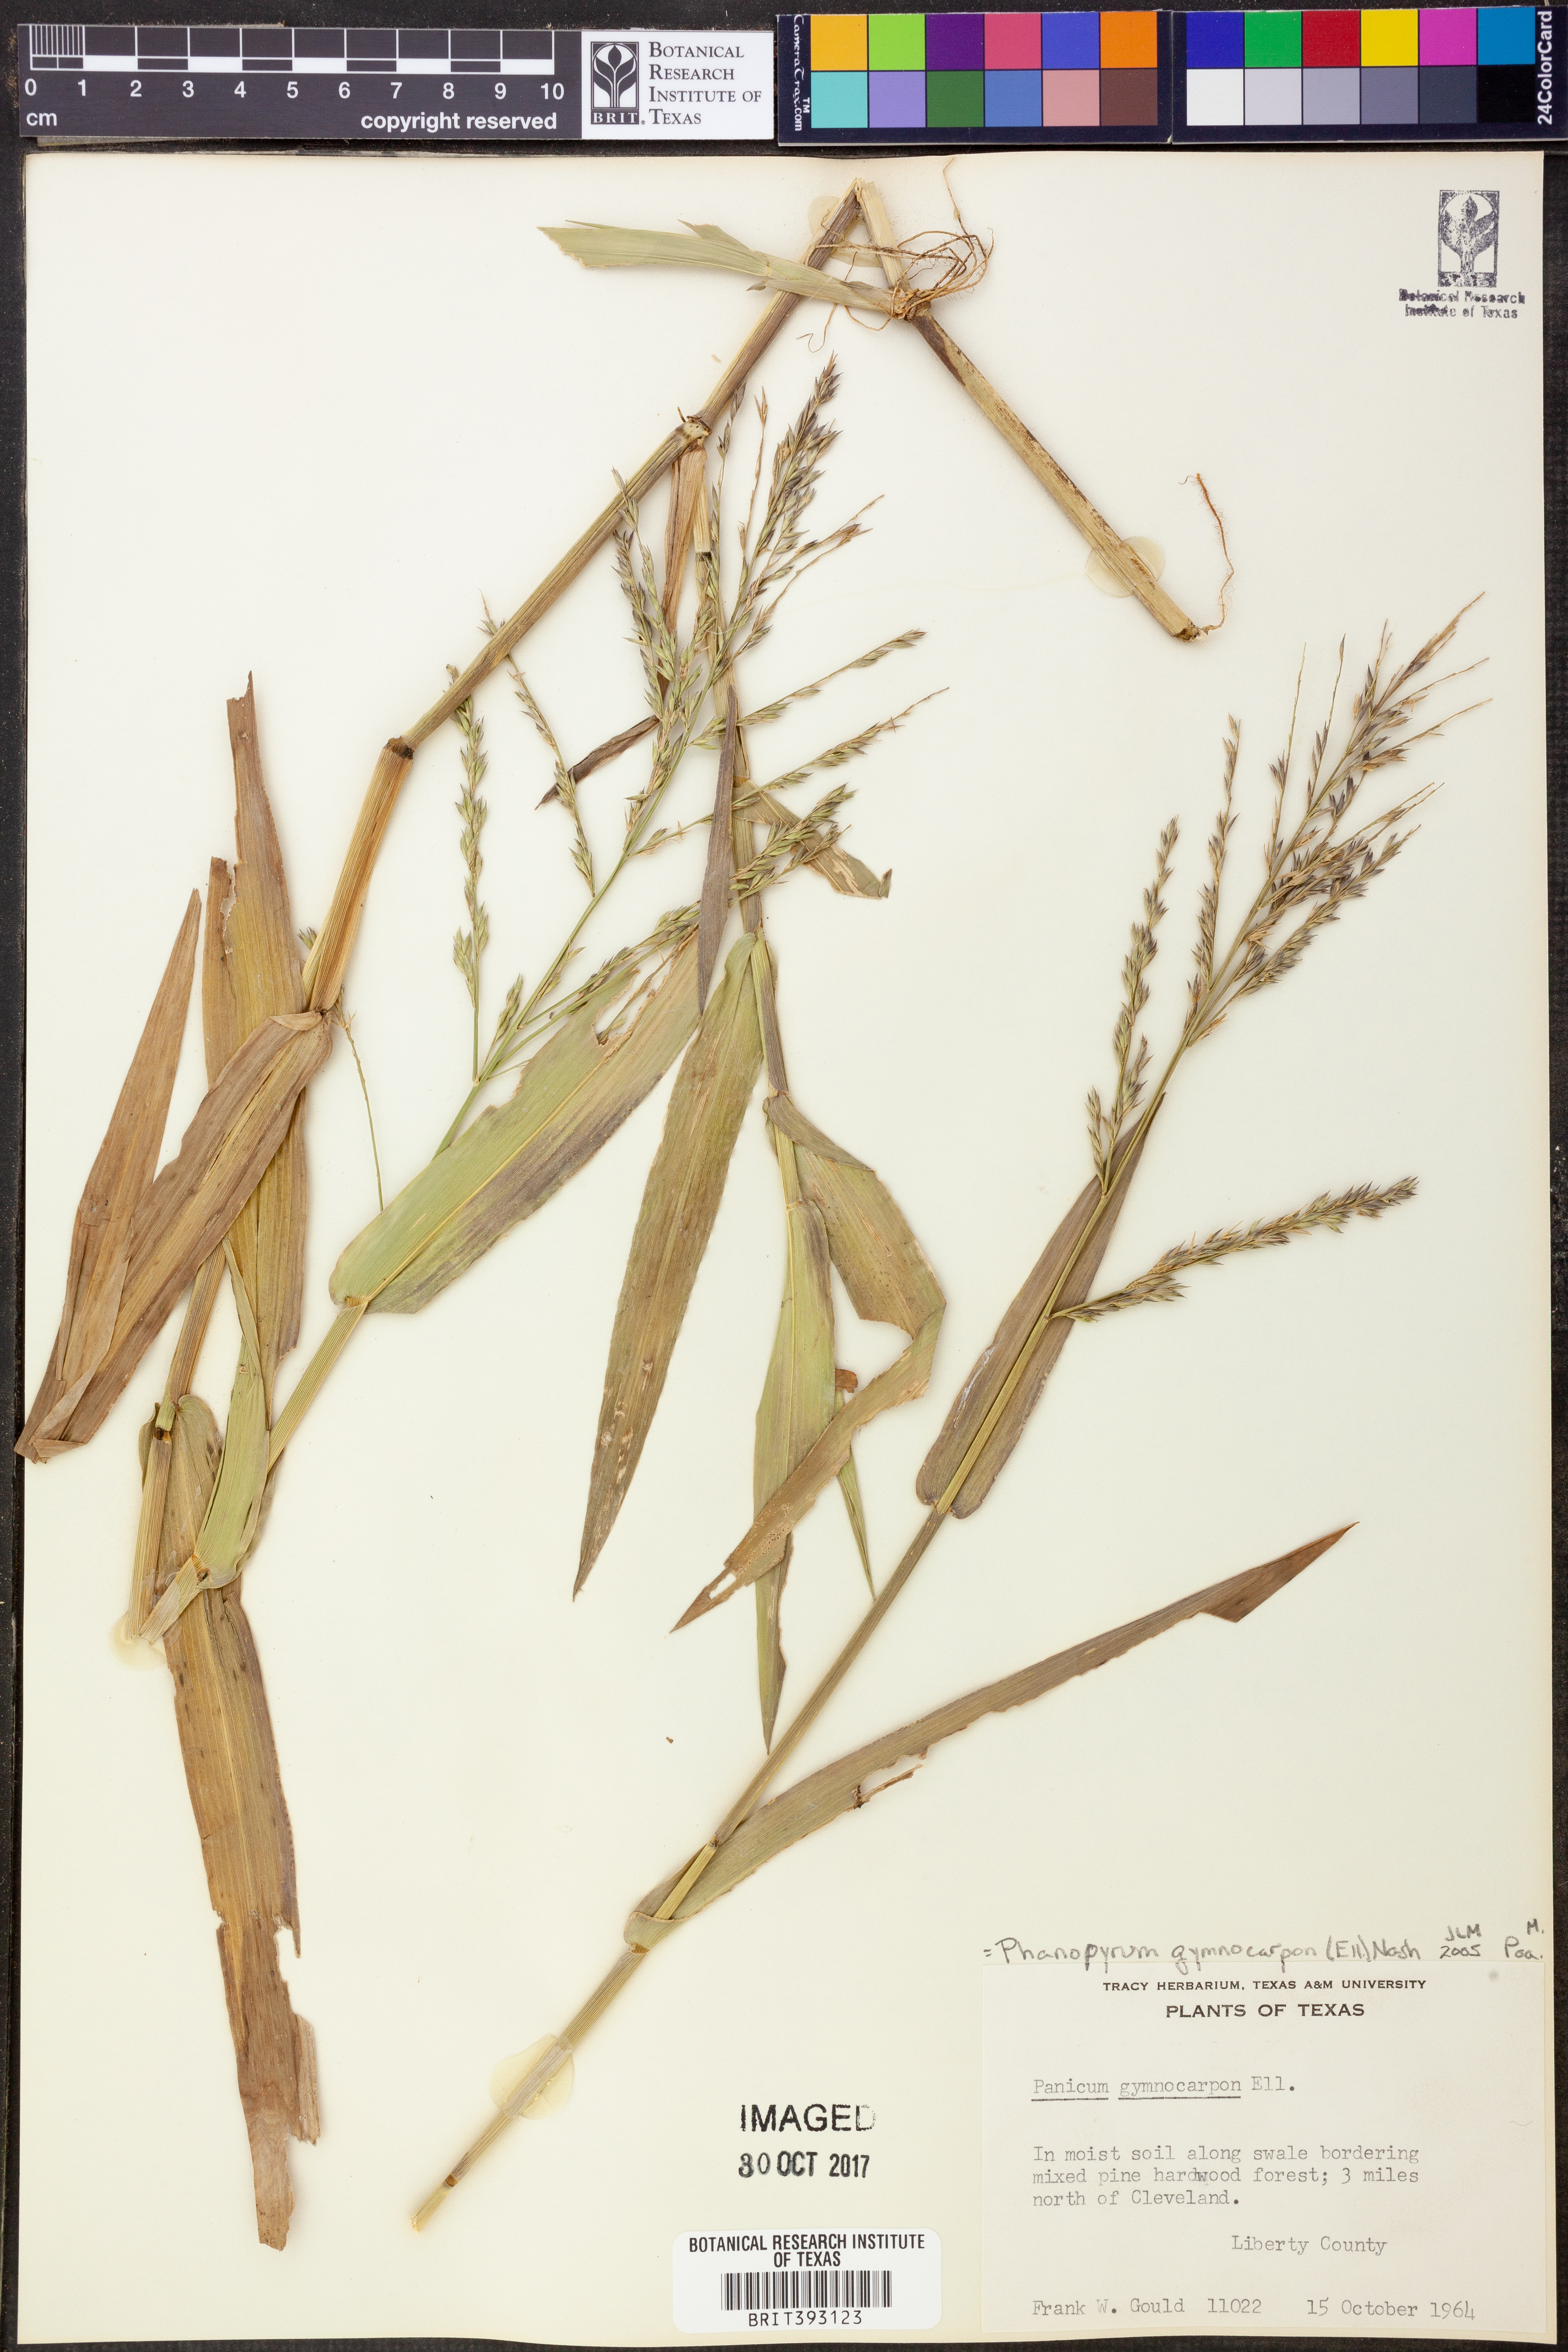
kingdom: Plantae
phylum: Tracheophyta
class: Liliopsida
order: Poales
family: Poaceae
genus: Panicum
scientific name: Panicum gymnocarpon
